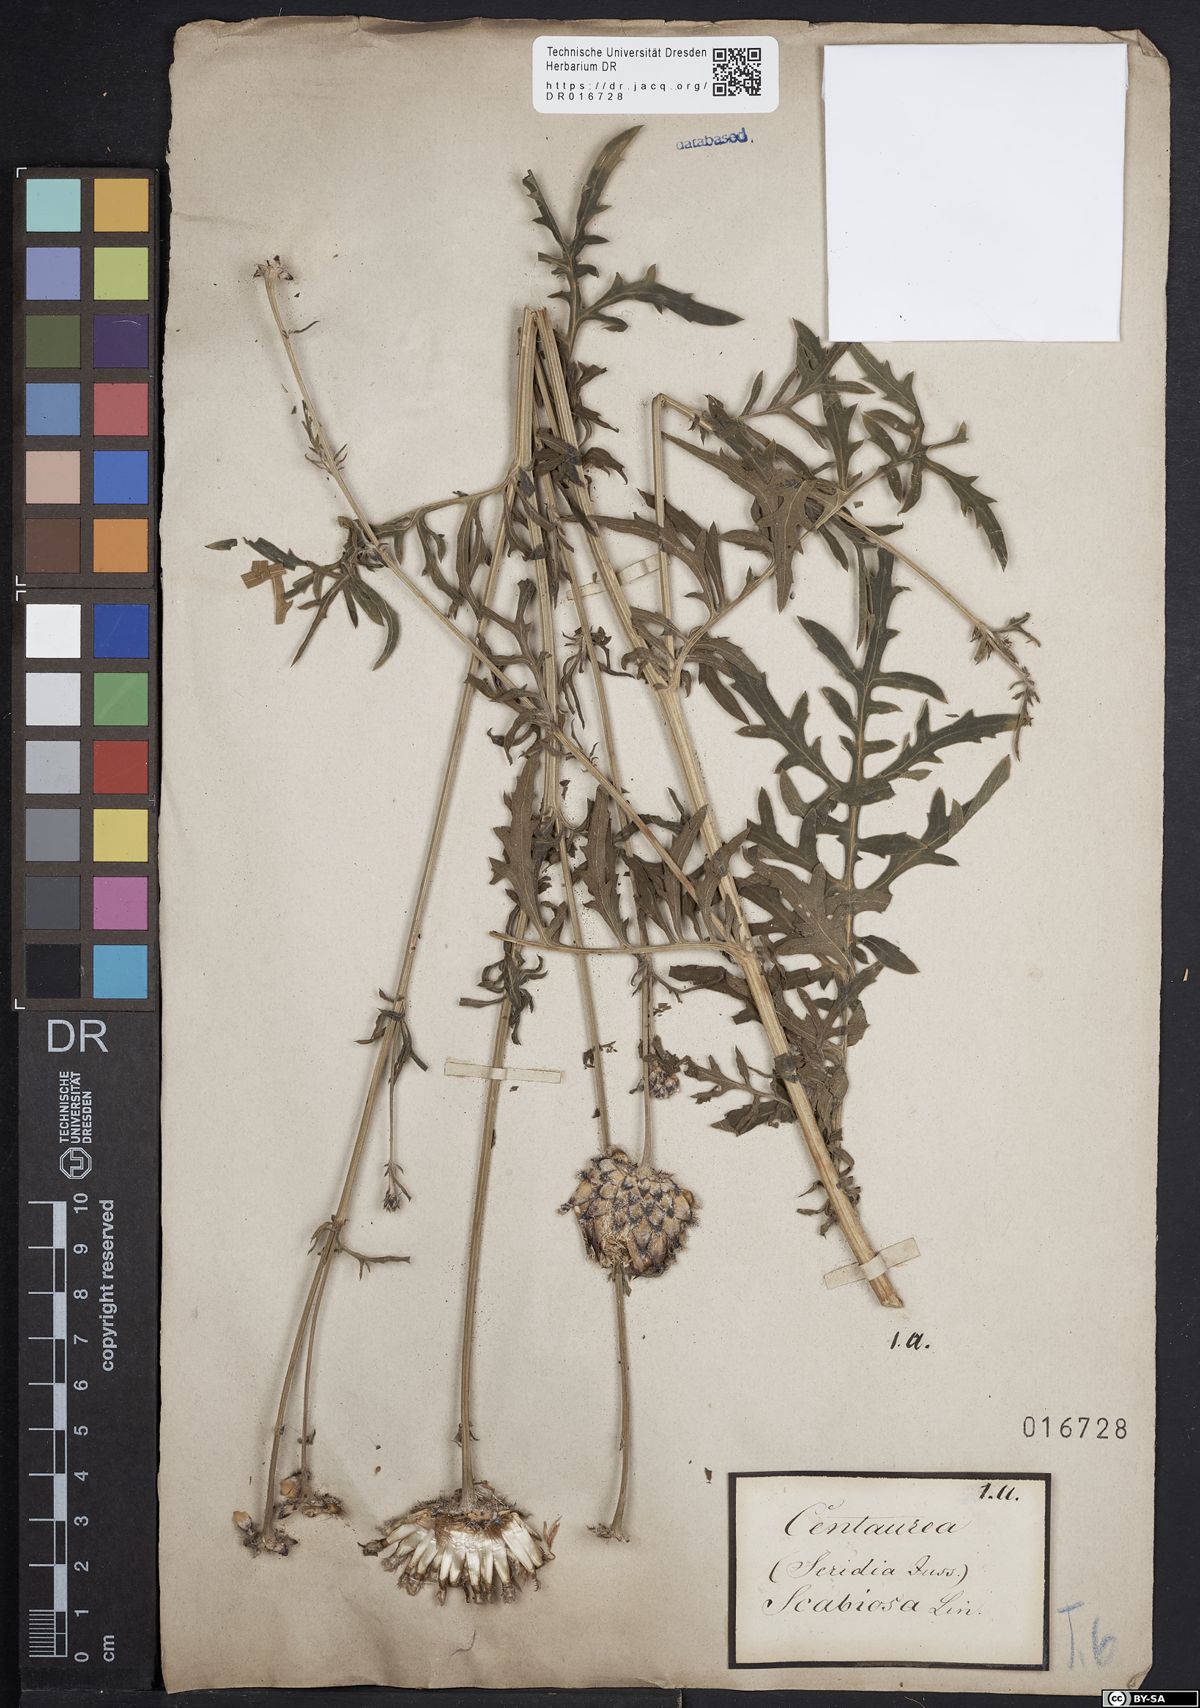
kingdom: Plantae
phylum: Tracheophyta
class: Magnoliopsida
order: Asterales
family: Asteraceae
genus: Centaurea
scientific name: Centaurea scabiosa
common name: Greater knapweed
